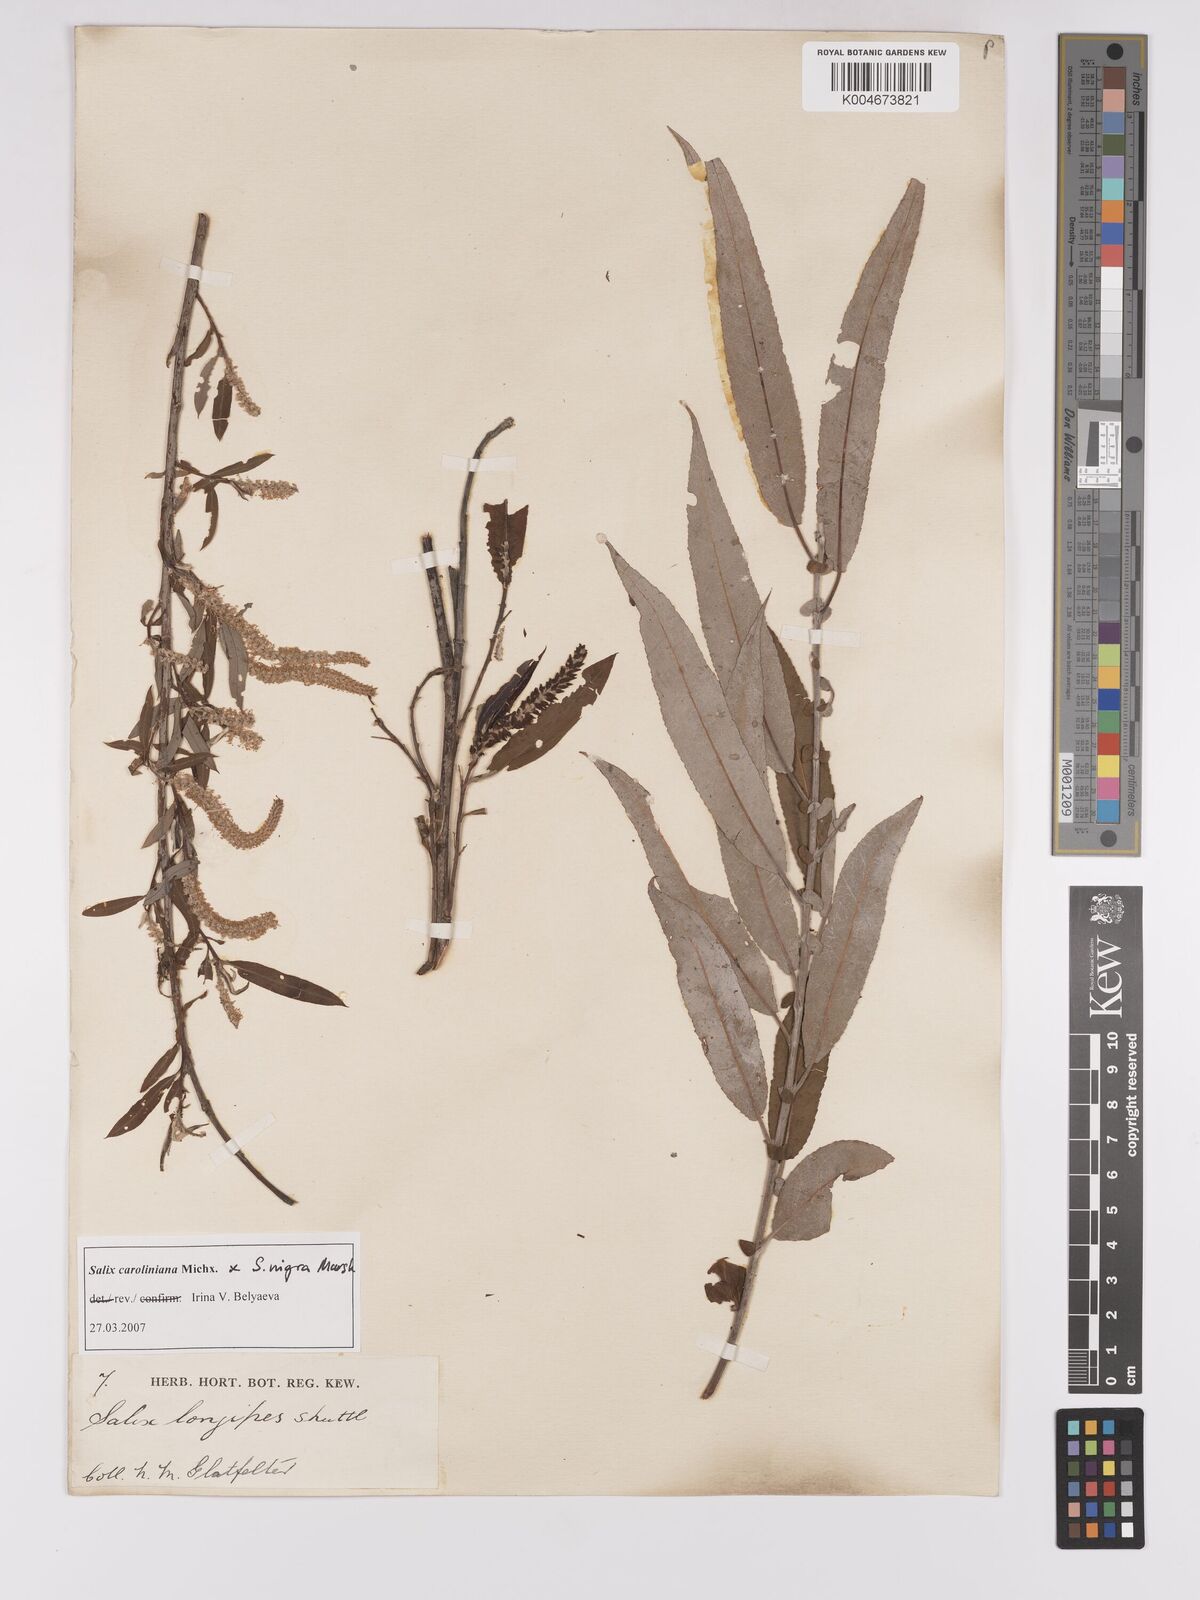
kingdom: Plantae
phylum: Tracheophyta
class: Magnoliopsida
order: Malpighiales
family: Salicaceae
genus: Salix
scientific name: Salix caroliniana
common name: Carolina willow
